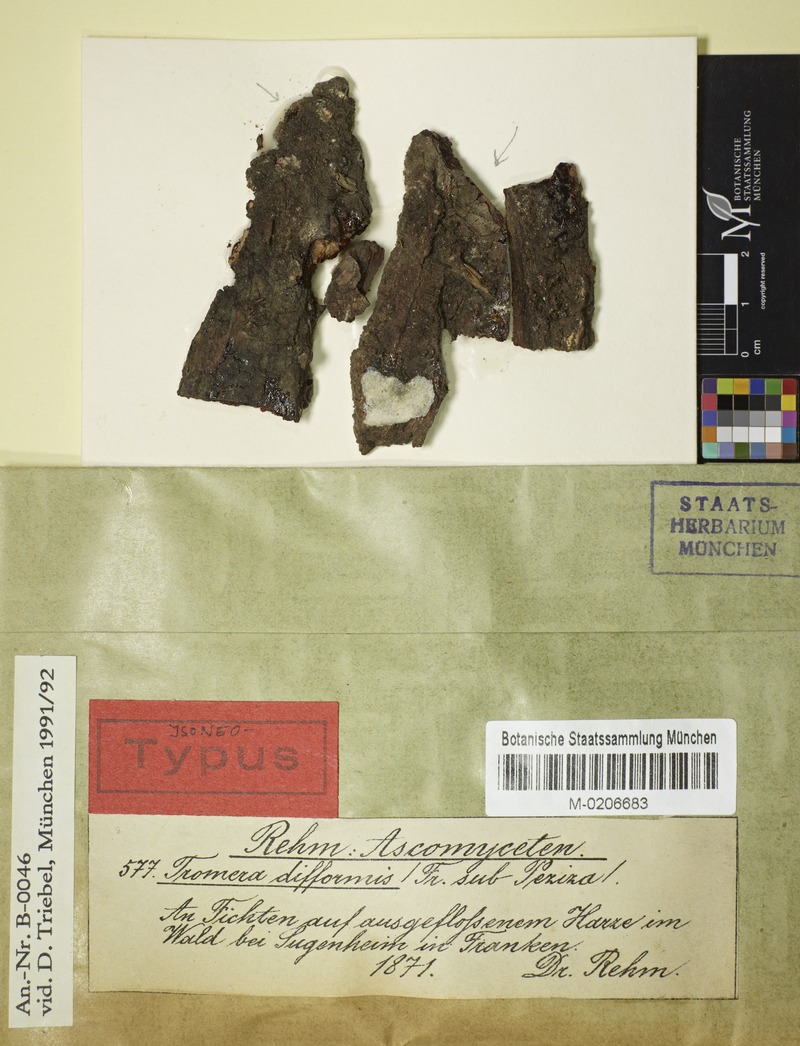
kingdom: Fungi
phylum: Ascomycota
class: Sareomycetes
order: Sareales
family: Sareaceae
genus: Sarea
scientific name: Sarea difformis
